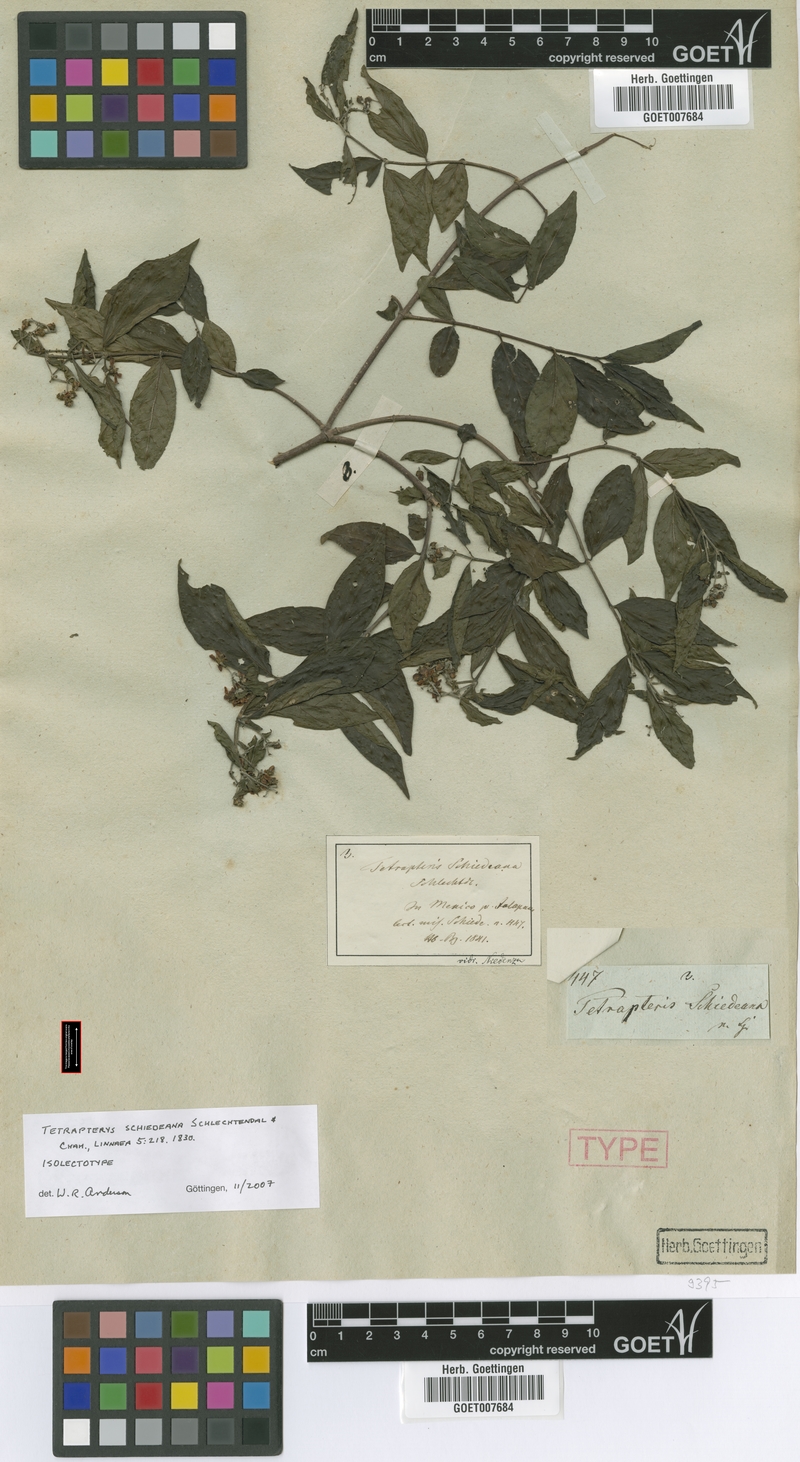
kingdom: Plantae
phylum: Tracheophyta
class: Magnoliopsida
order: Malpighiales
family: Malpighiaceae
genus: Tetrapterys
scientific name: Tetrapterys schiedeana
